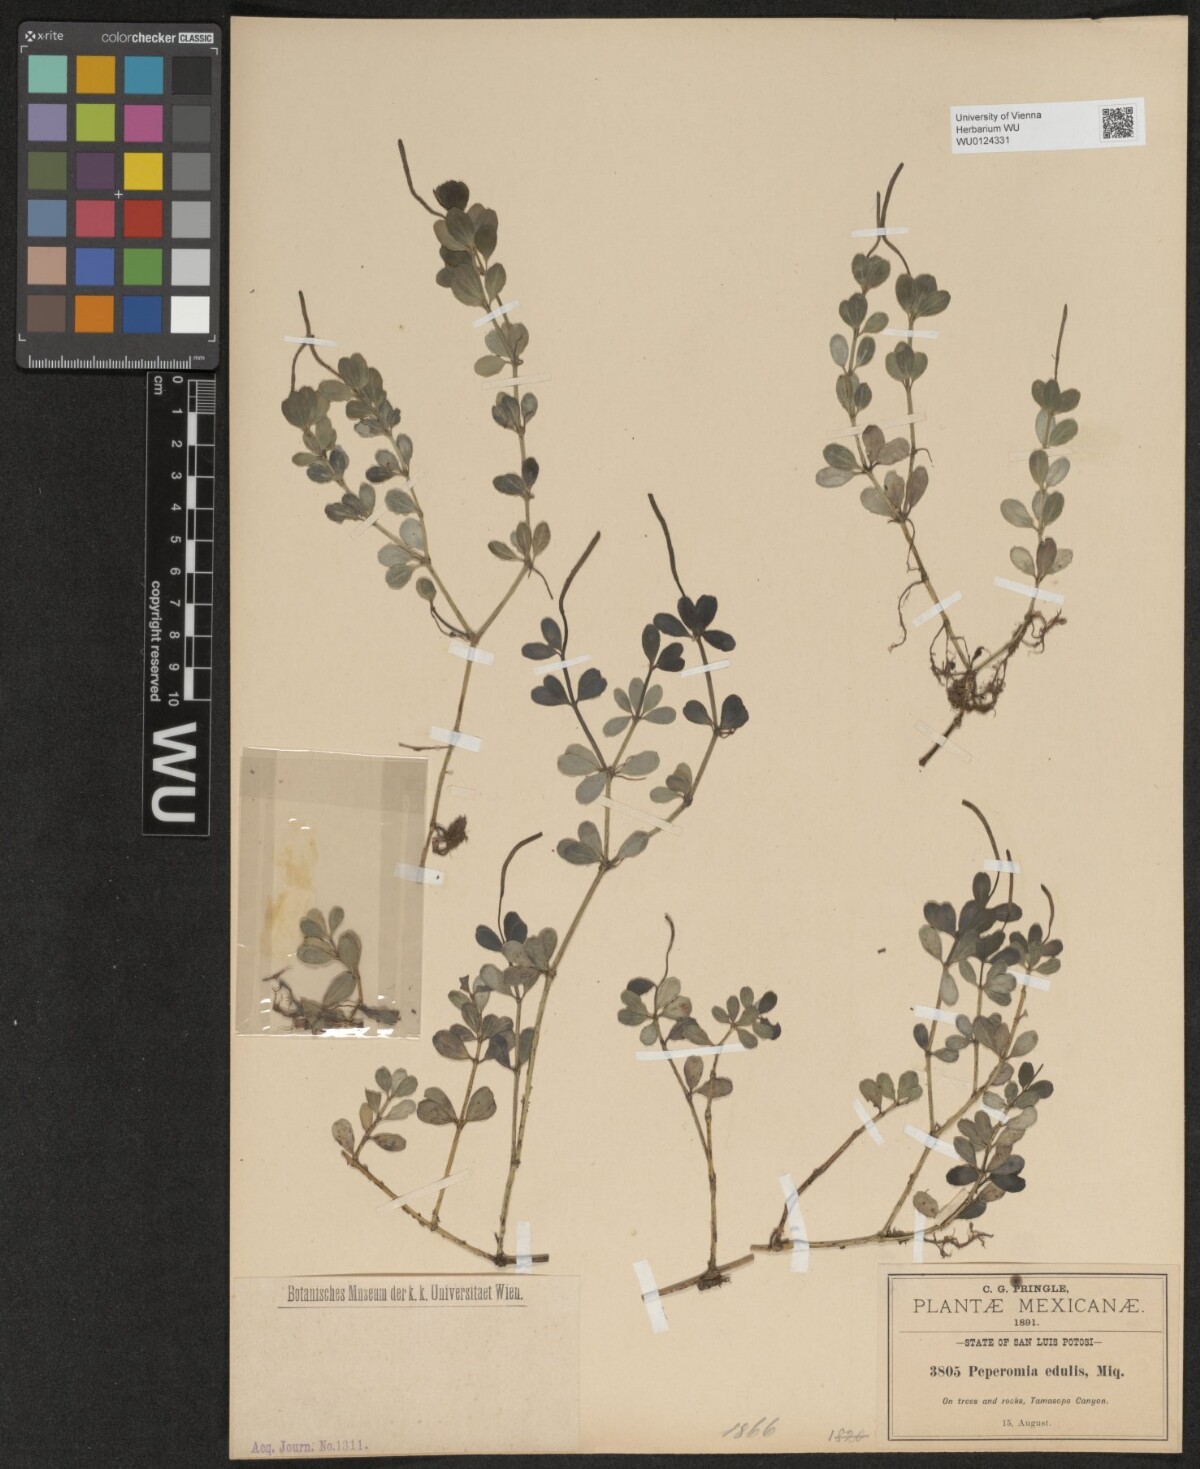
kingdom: Plantae
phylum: Tracheophyta
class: Magnoliopsida
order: Piperales
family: Piperaceae
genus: Peperomia
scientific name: Peperomia edulis
